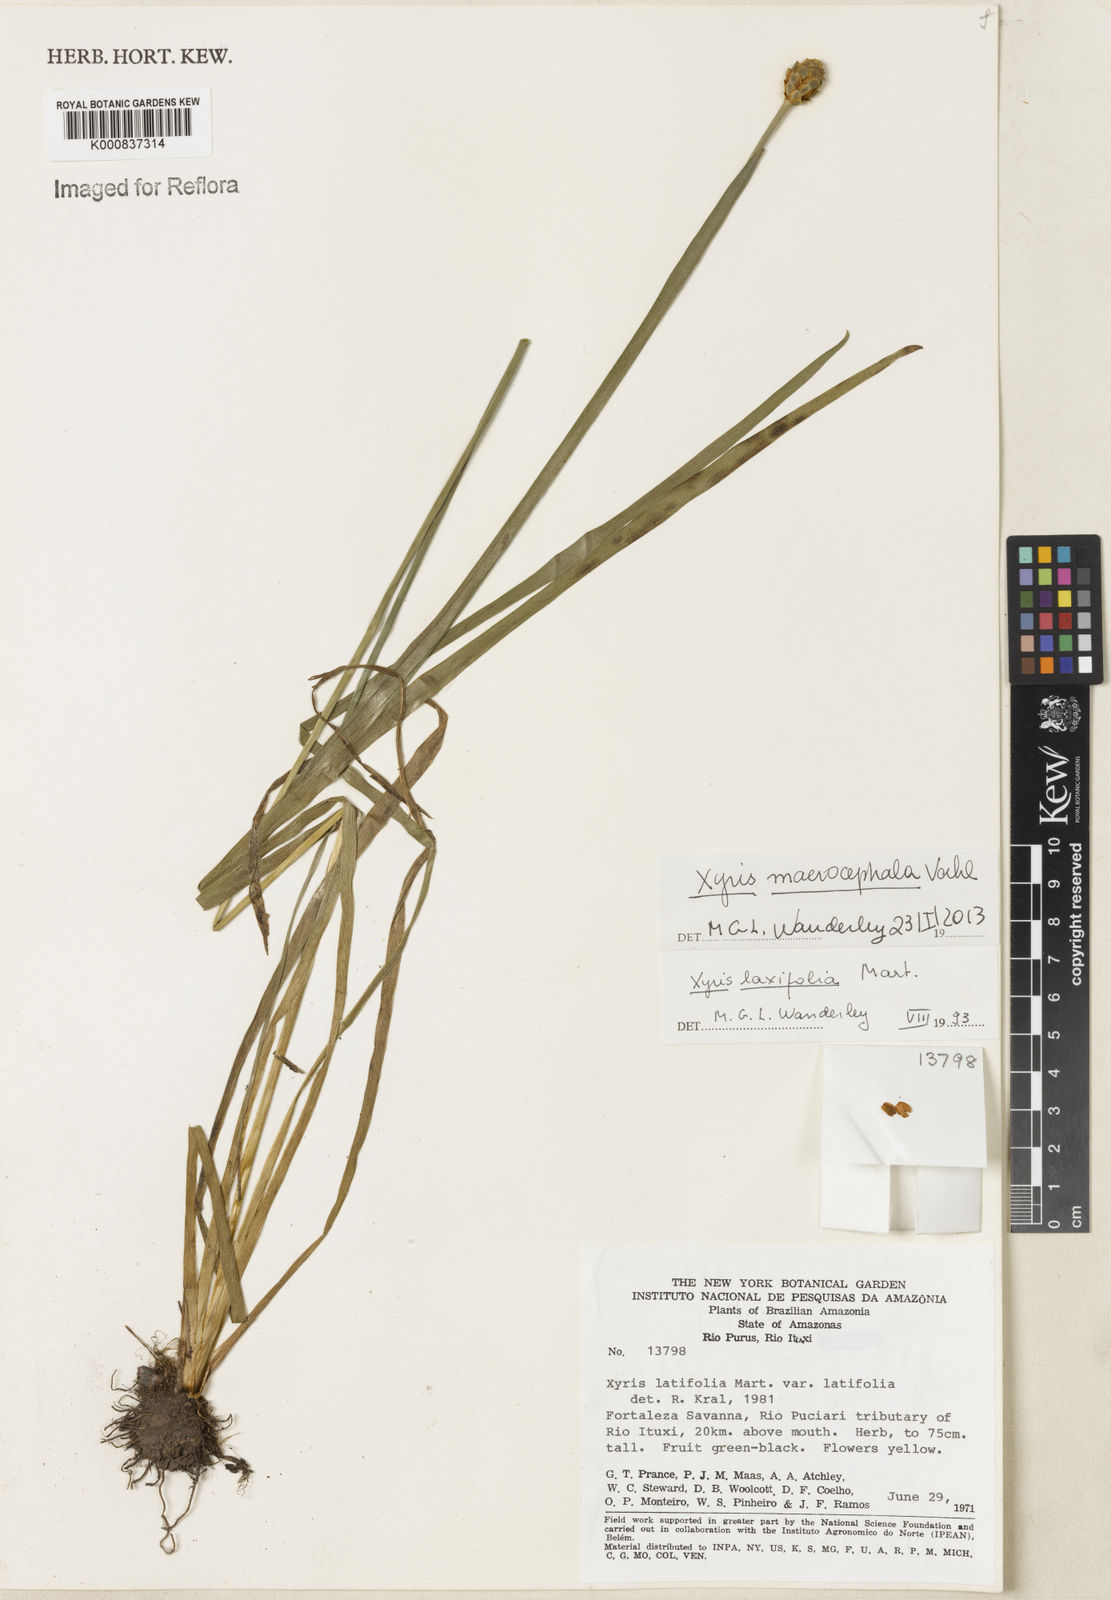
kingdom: Plantae
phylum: Tracheophyta
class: Liliopsida
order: Poales
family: Xyridaceae
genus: Xyris
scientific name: Xyris jupicai
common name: Richard's yelloweyed grass
